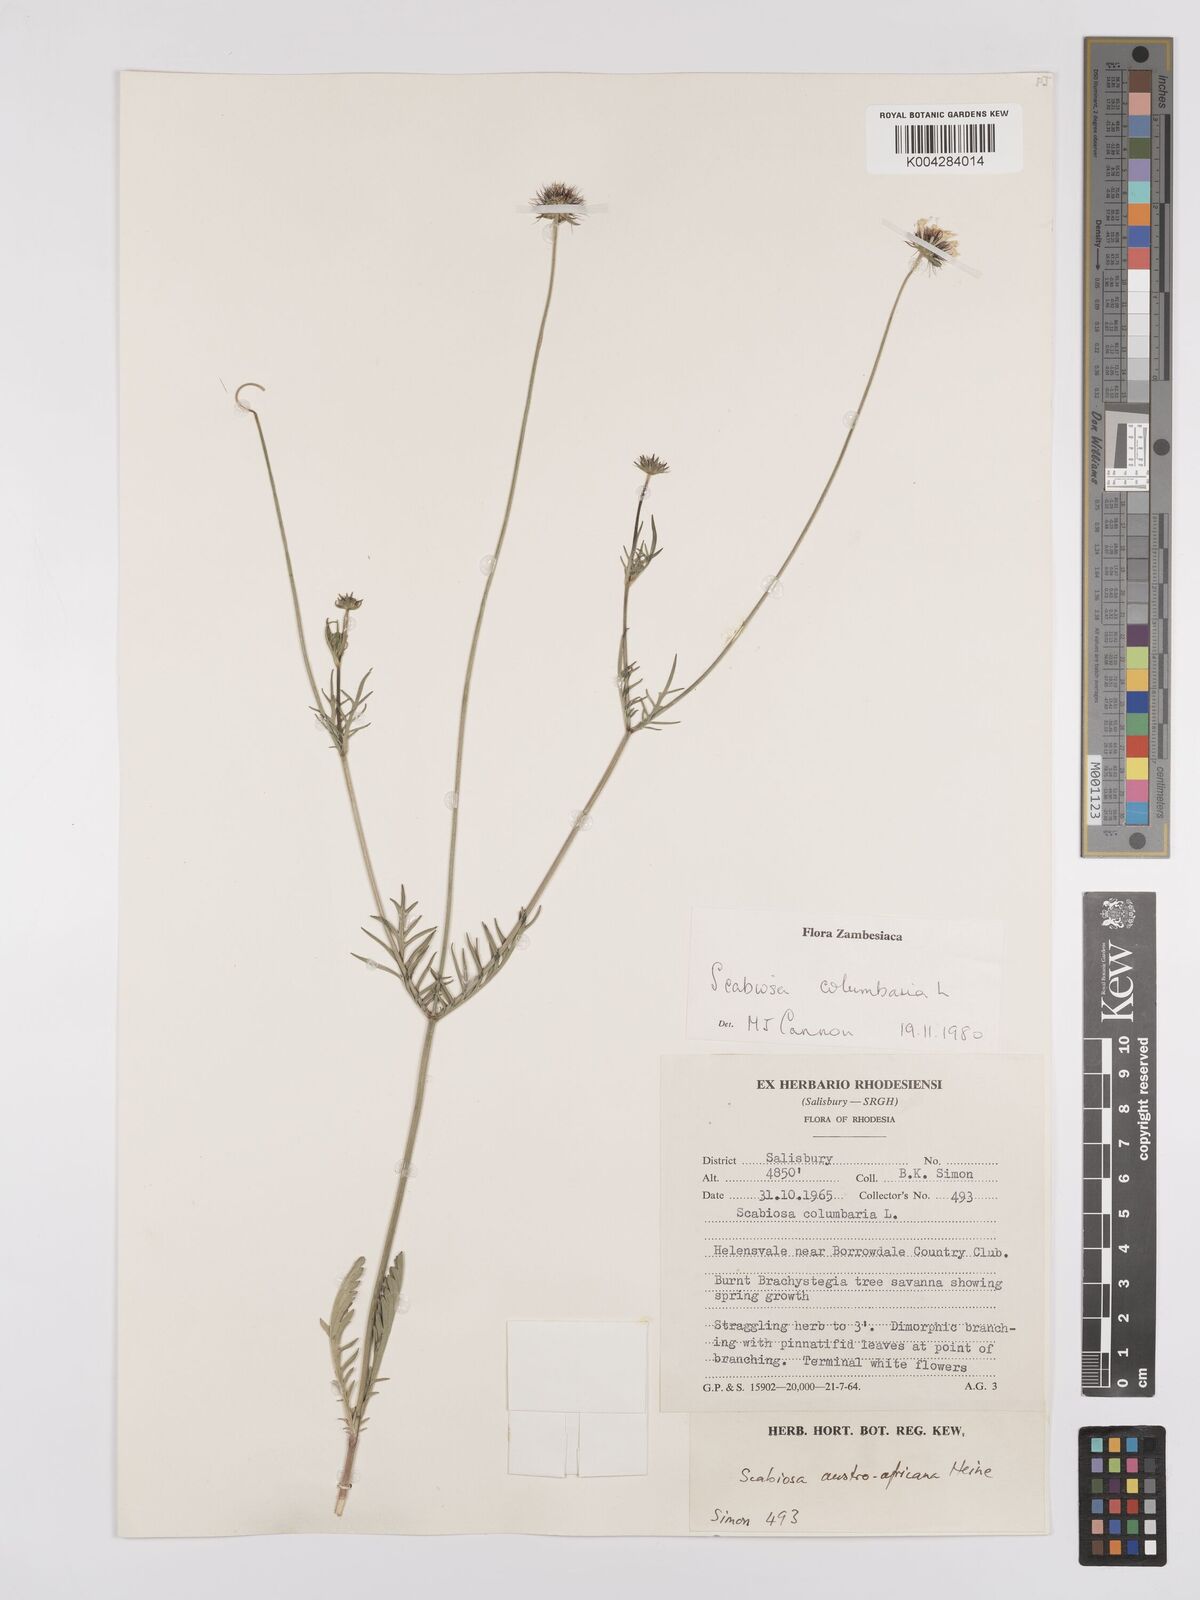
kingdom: Plantae
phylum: Tracheophyta
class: Magnoliopsida
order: Dipsacales
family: Caprifoliaceae
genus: Scabiosa
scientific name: Scabiosa austroafricana
